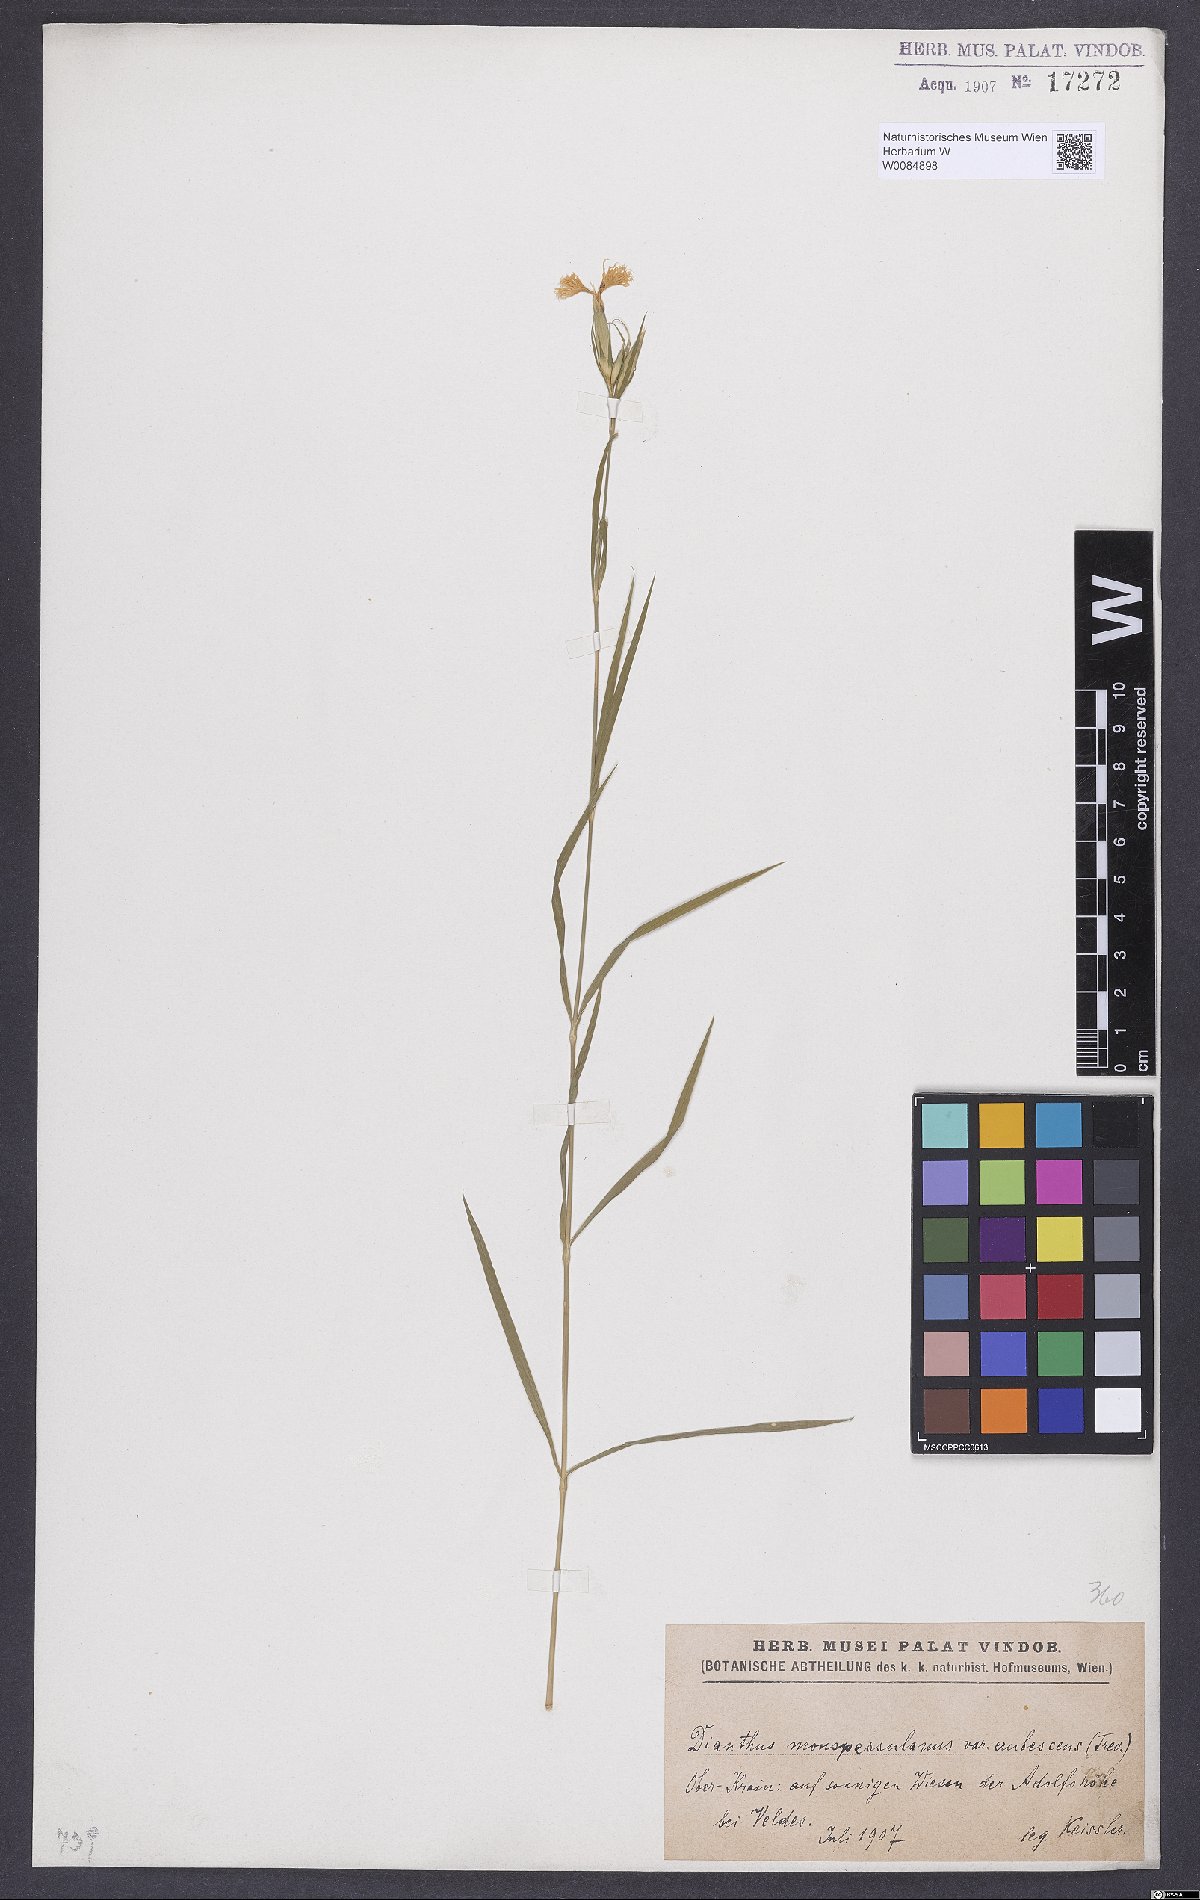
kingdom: Plantae
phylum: Tracheophyta
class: Magnoliopsida
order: Caryophyllales
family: Caryophyllaceae
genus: Dianthus
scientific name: Dianthus hyssopifolius
